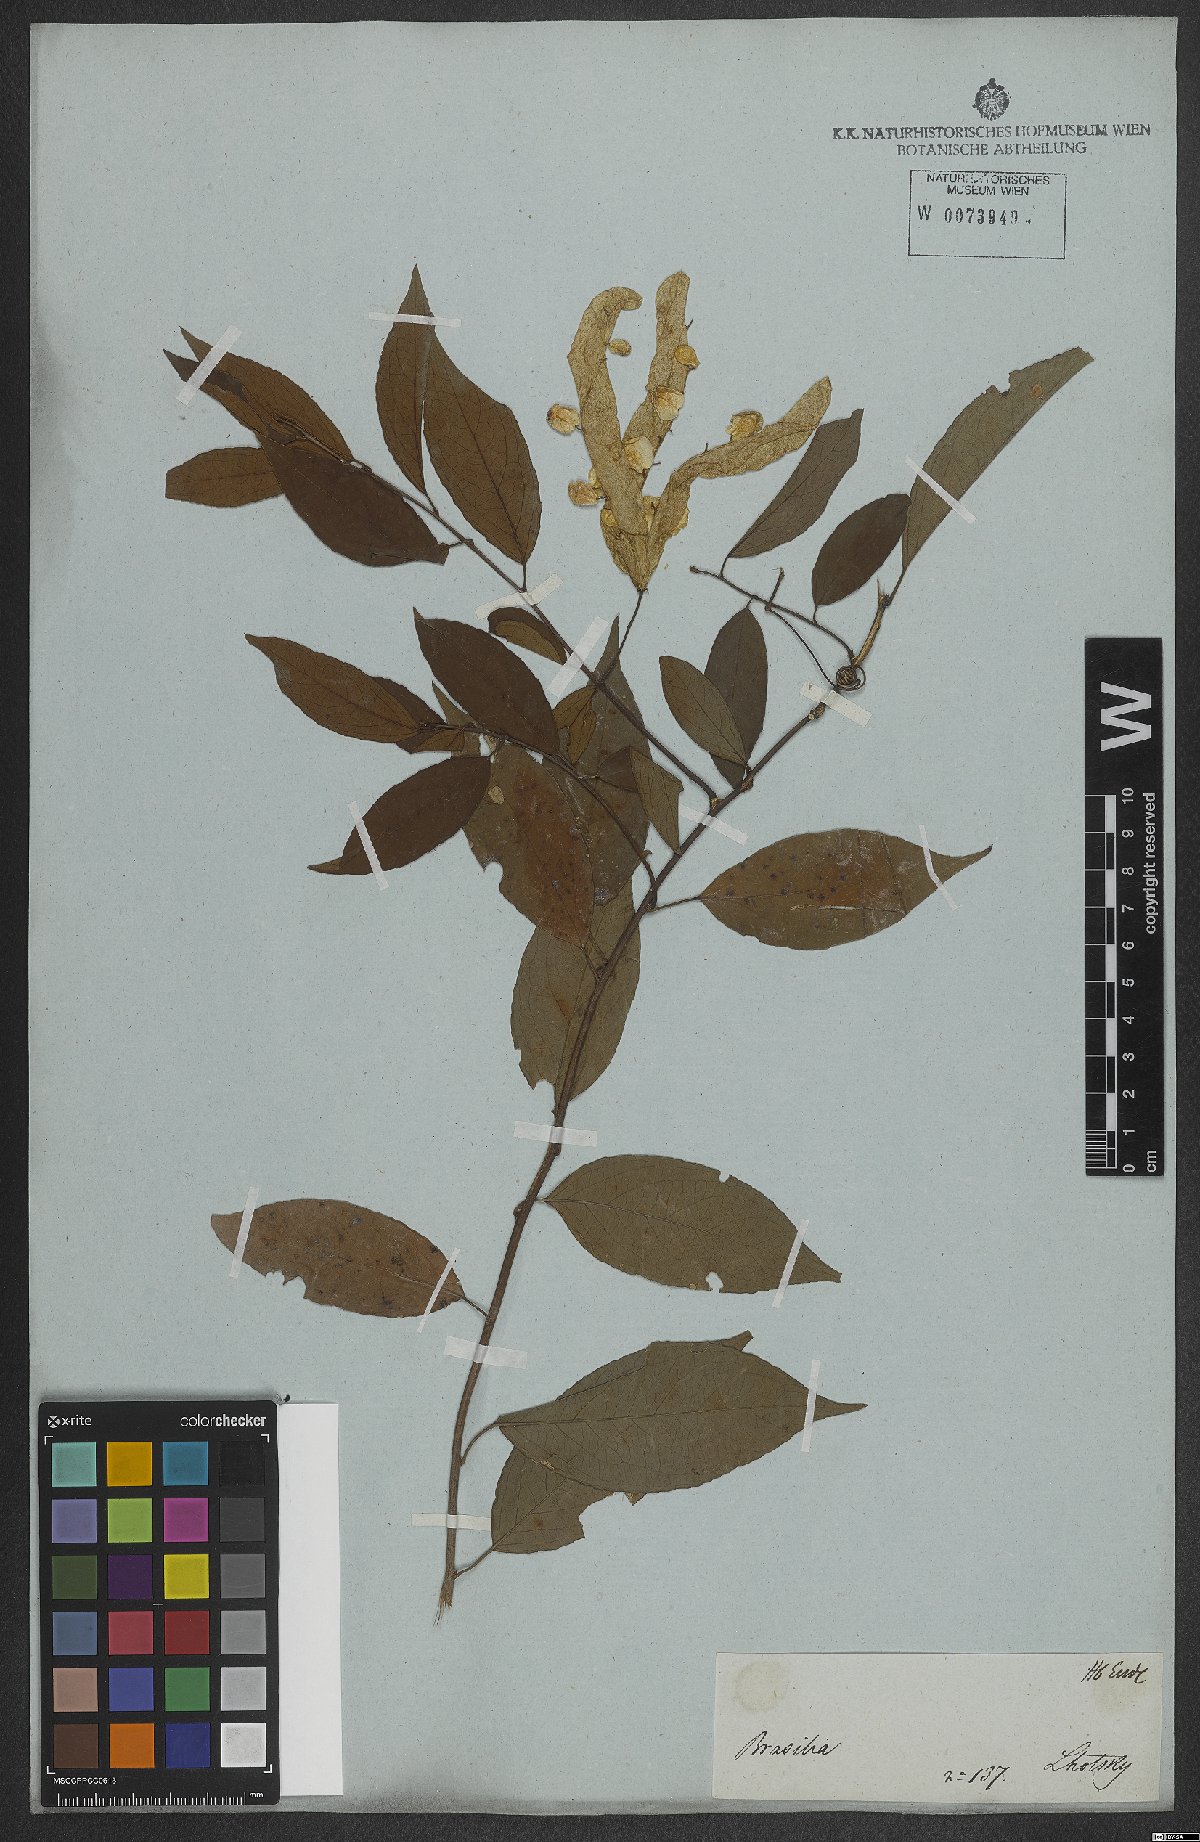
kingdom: Plantae
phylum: Tracheophyta
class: Magnoliopsida
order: Malpighiales
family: Violaceae
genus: Anchietea
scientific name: Anchietea pyrifolia
